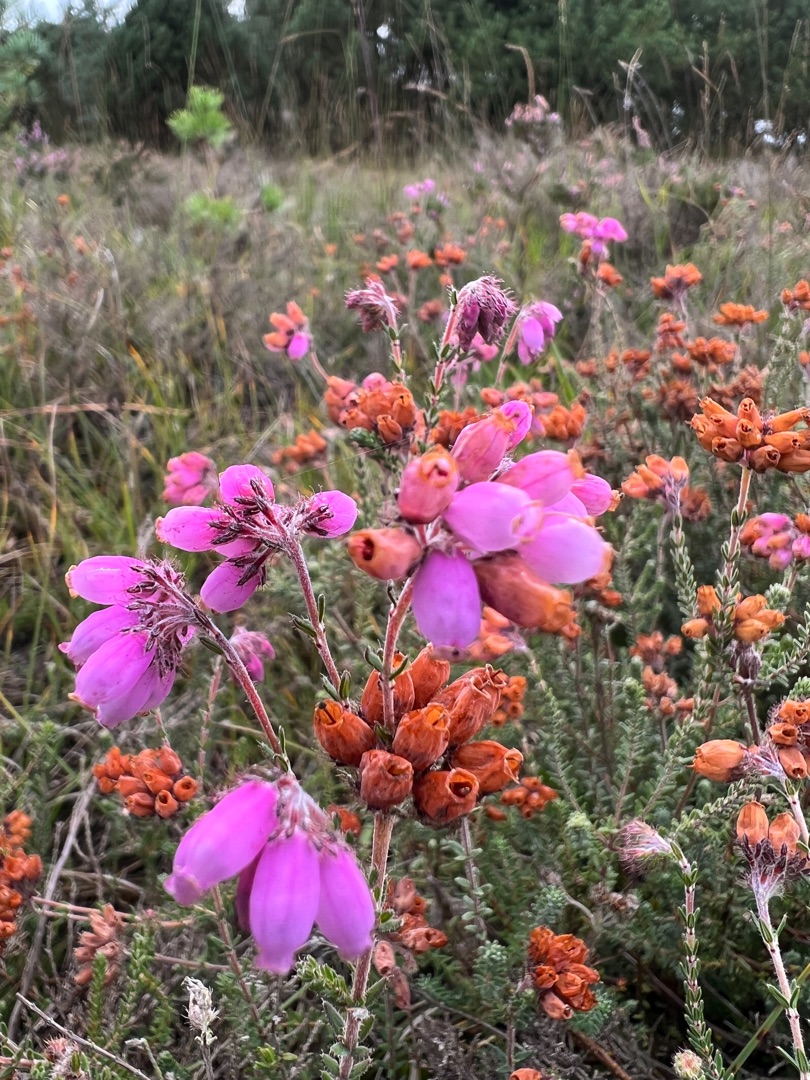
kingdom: Plantae
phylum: Tracheophyta
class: Magnoliopsida
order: Ericales
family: Ericaceae
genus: Erica
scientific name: Erica tetralix
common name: Klokkelyng
